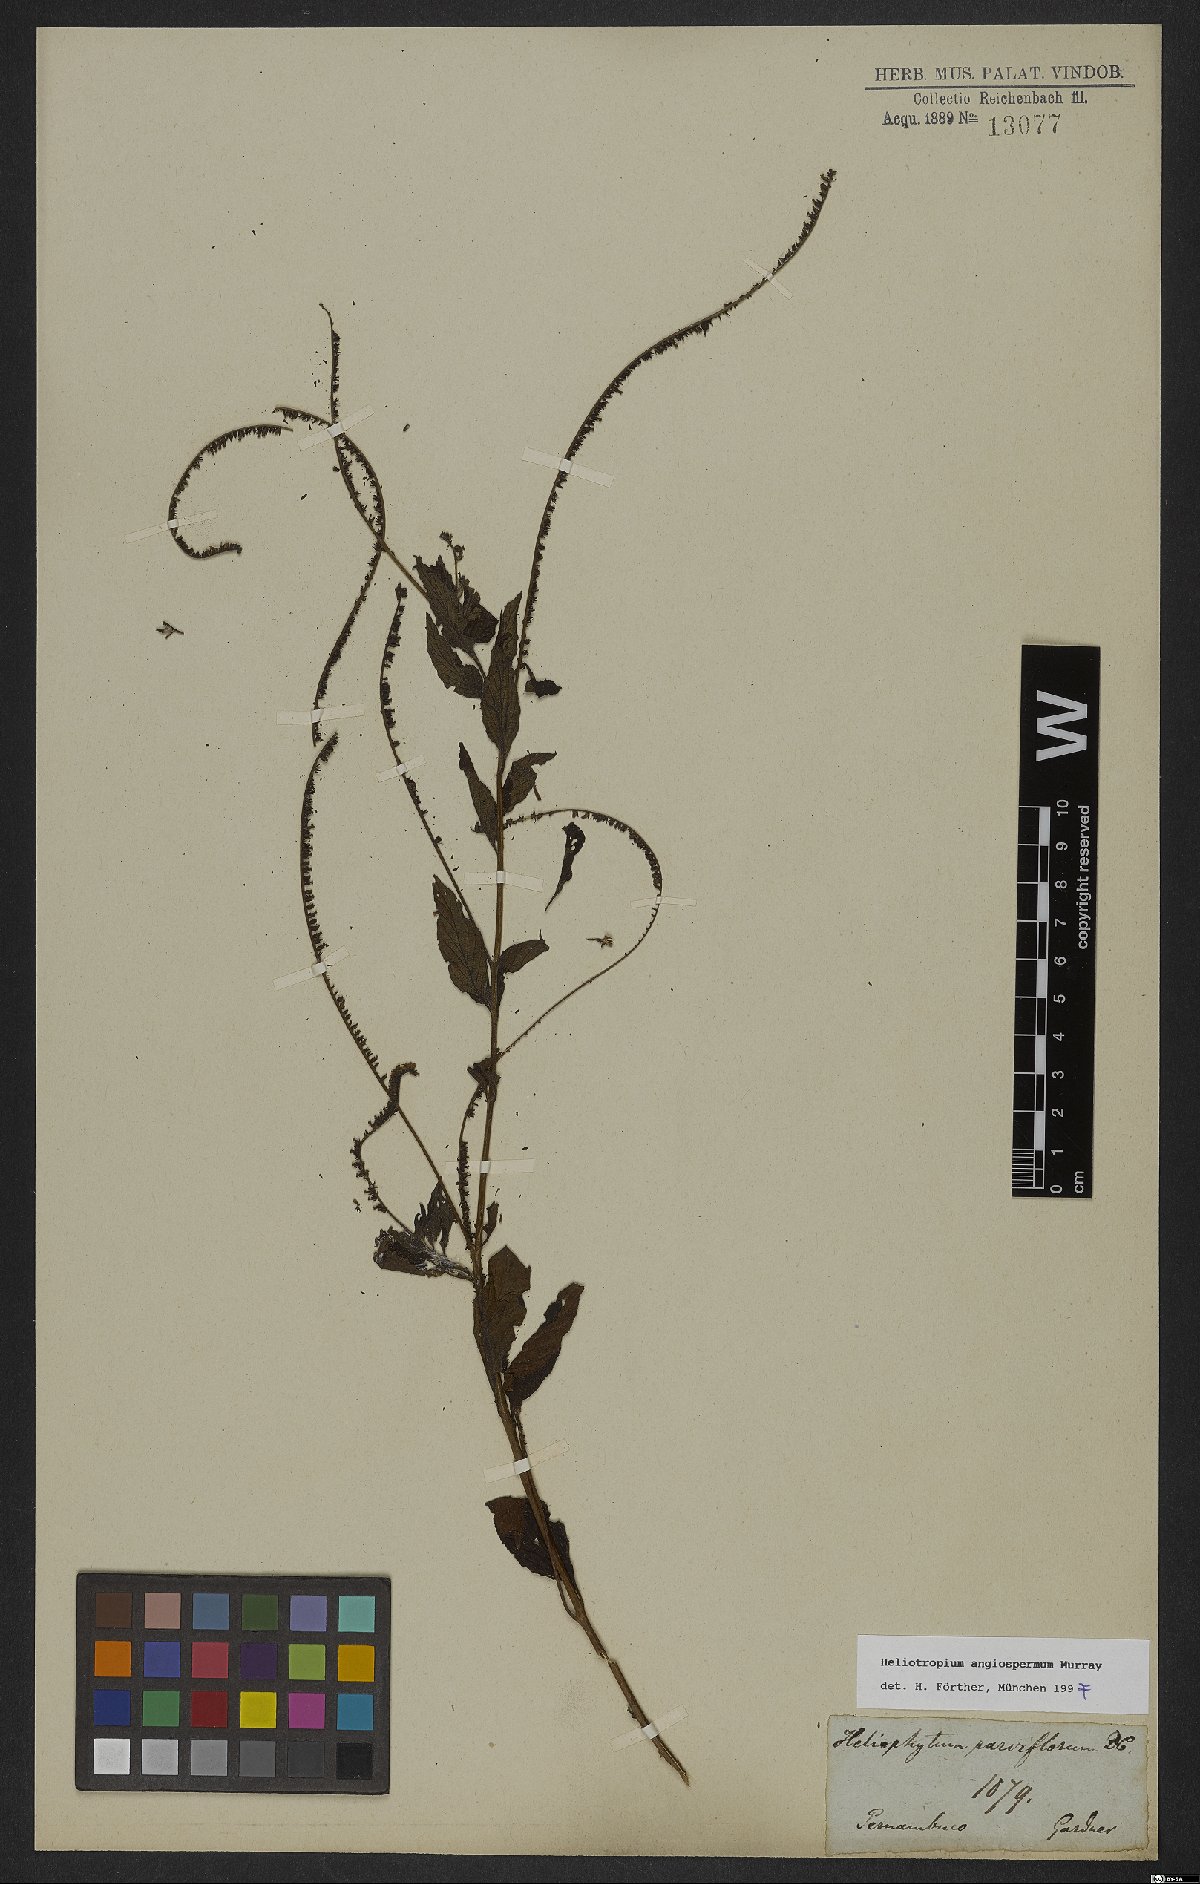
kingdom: Plantae
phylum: Tracheophyta
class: Magnoliopsida
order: Boraginales
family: Heliotropiaceae
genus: Heliotropium
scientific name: Heliotropium angiospermum
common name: Eye bright
